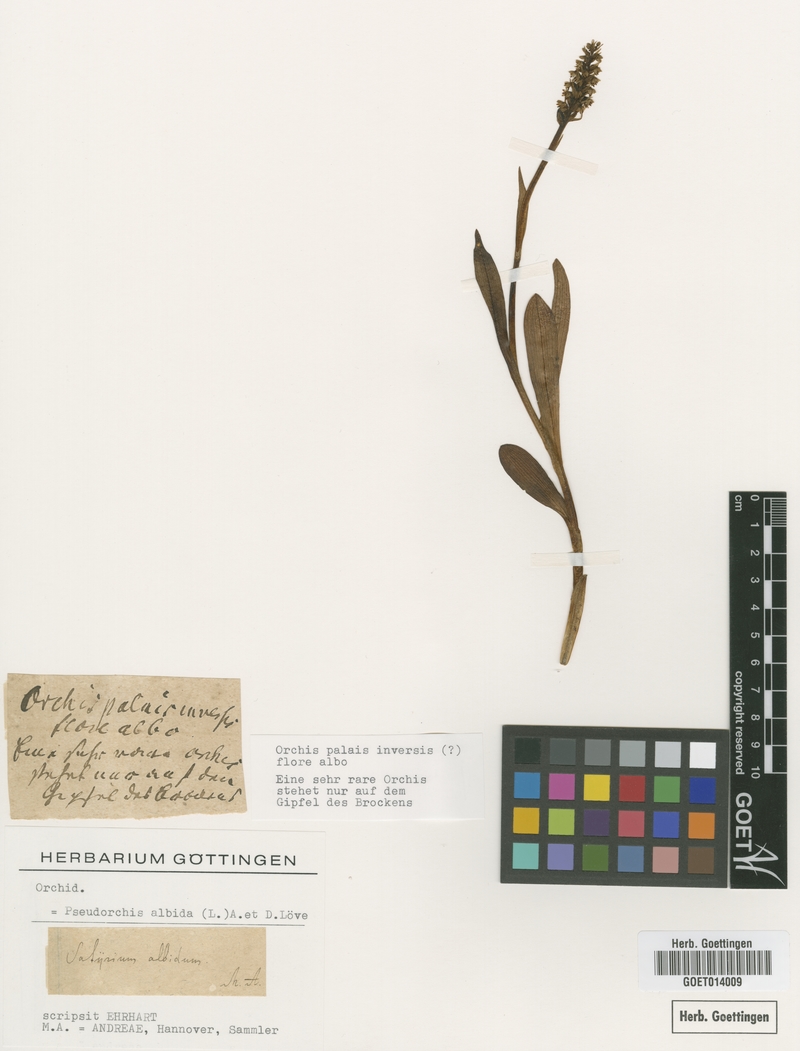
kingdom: Plantae
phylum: Tracheophyta
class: Liliopsida
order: Asparagales
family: Orchidaceae
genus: Pseudorchis
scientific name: Pseudorchis albida
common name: Small-white orchid
